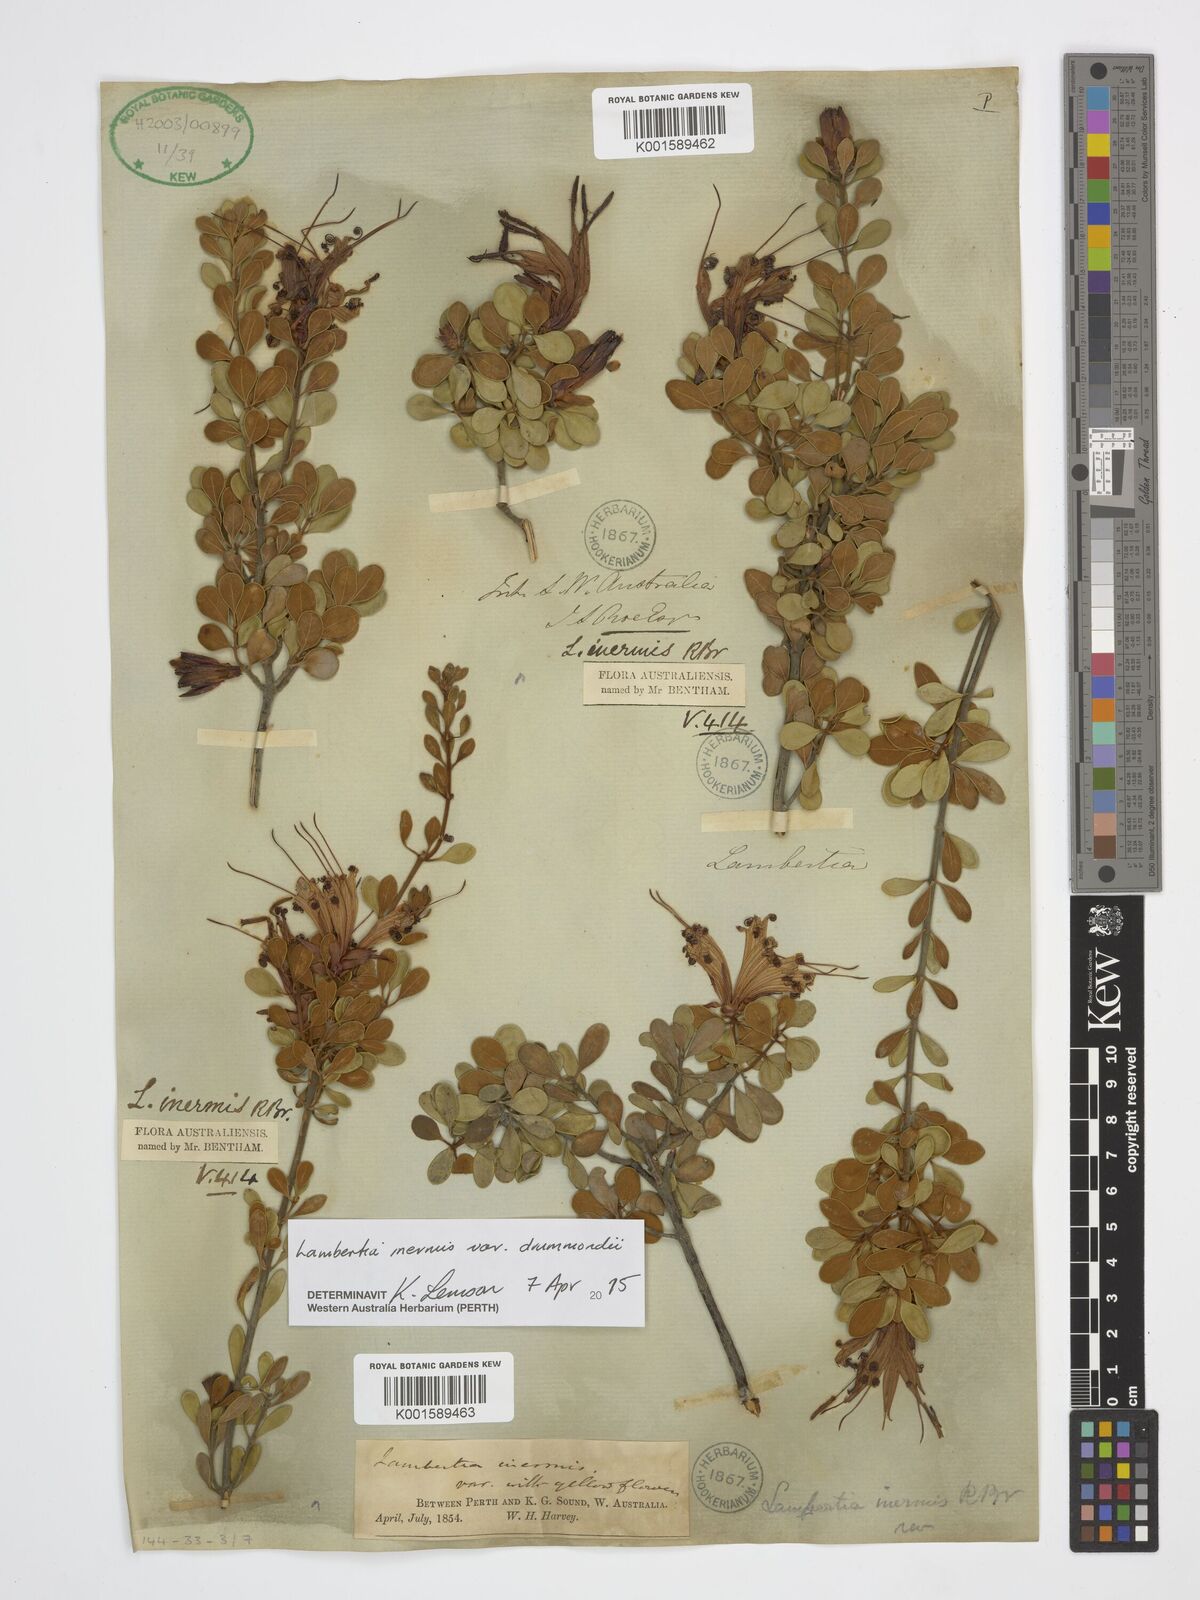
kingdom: Plantae
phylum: Tracheophyta
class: Magnoliopsida
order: Proteales
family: Proteaceae
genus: Lambertia
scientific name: Lambertia inermis
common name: Chittick
